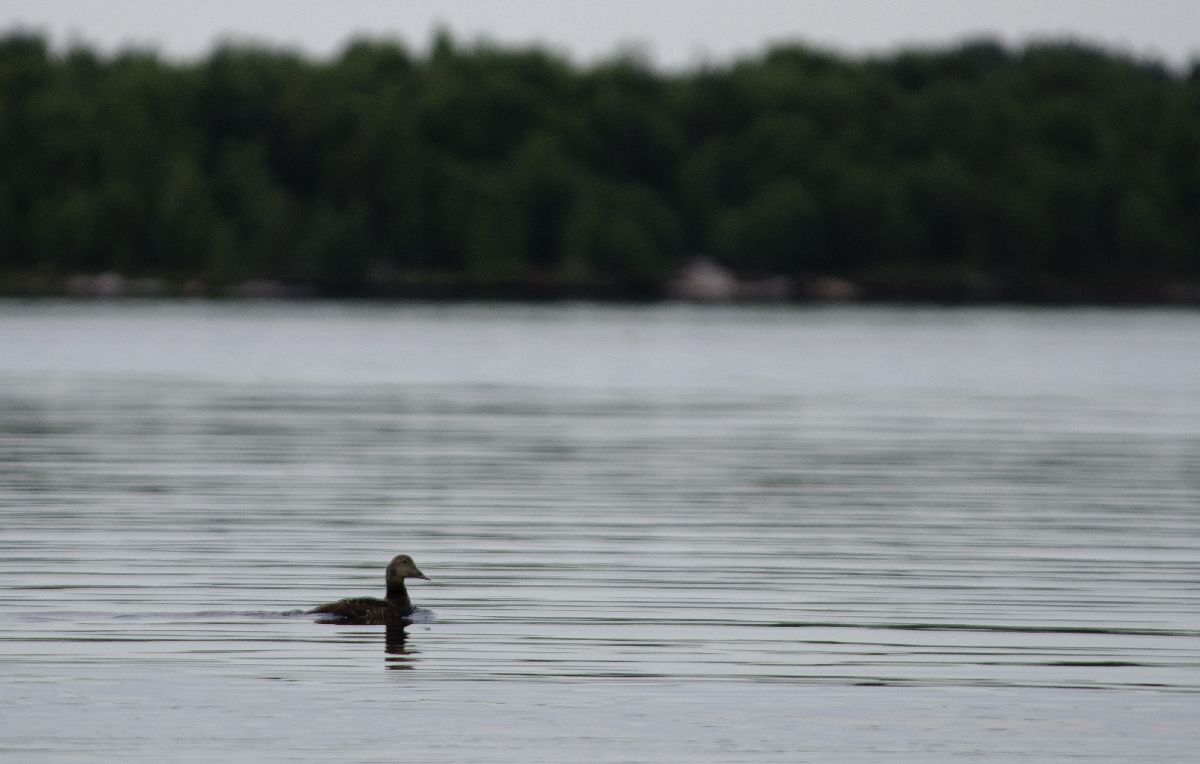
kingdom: Animalia
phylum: Chordata
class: Aves
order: Anseriformes
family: Anatidae
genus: Somateria
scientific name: Somateria mollissima
